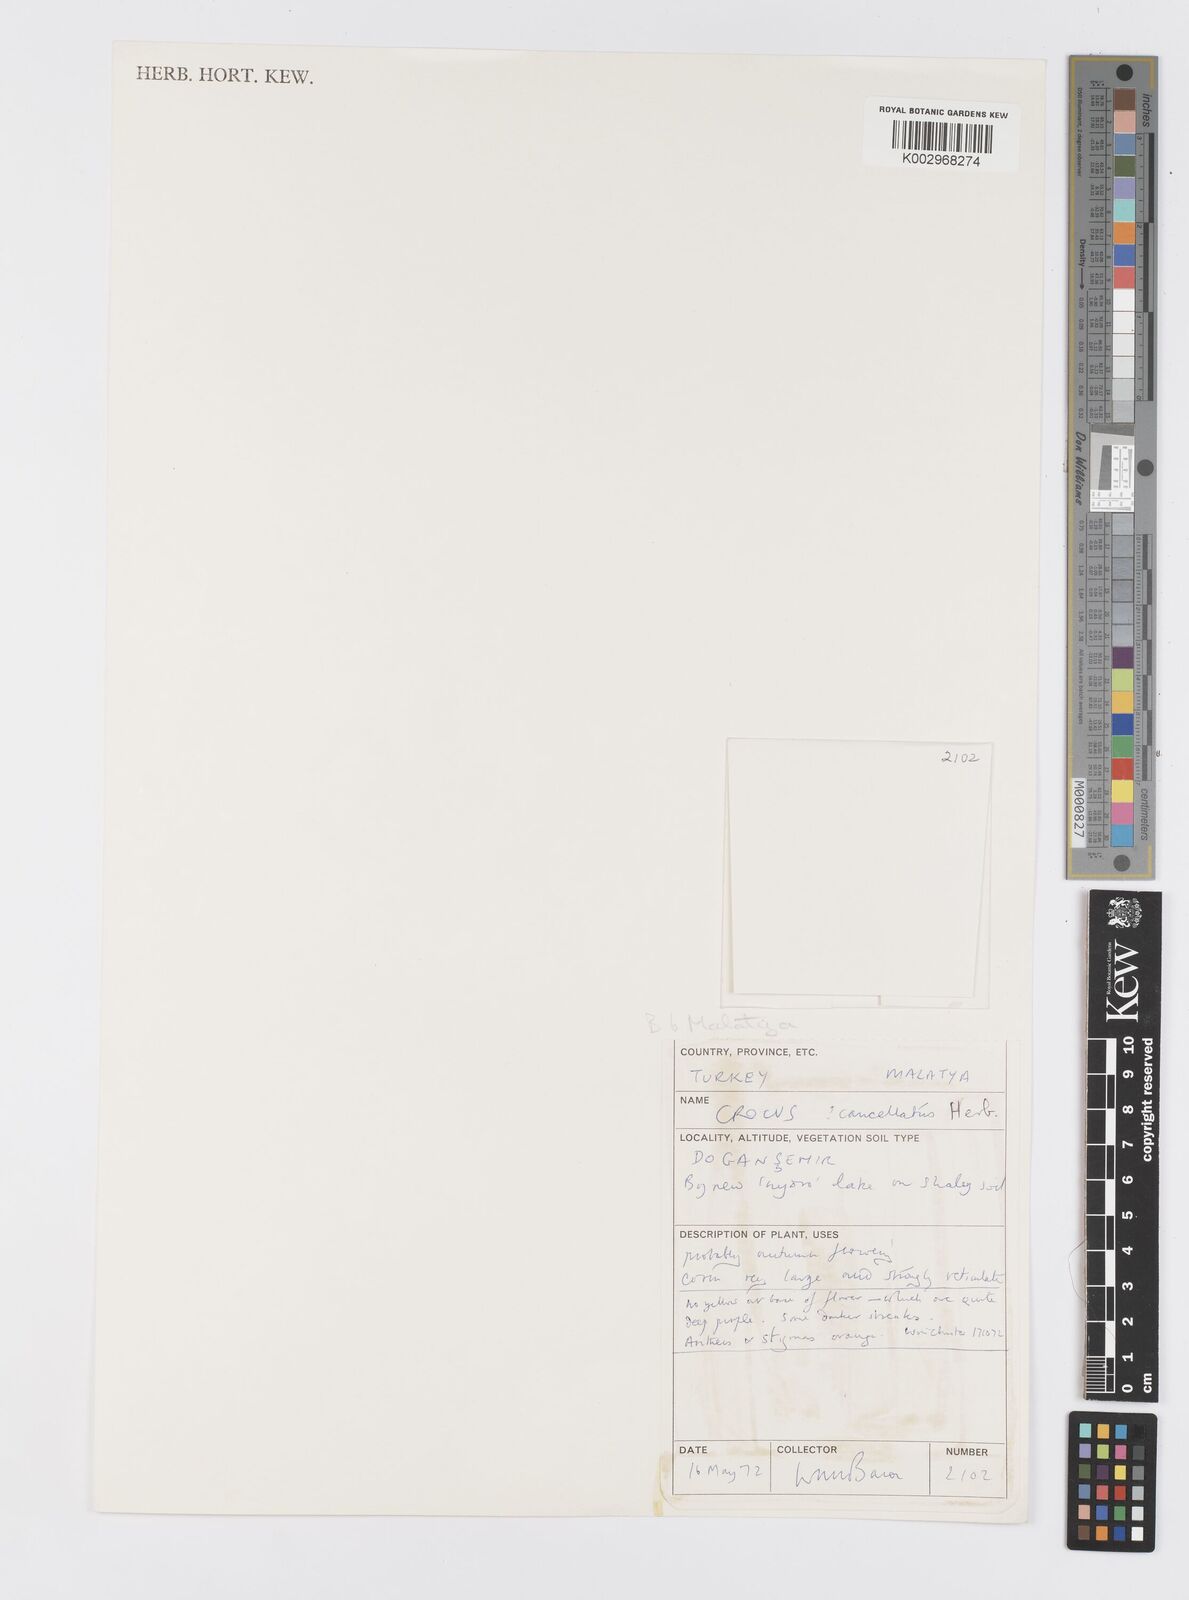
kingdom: Plantae
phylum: Tracheophyta
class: Liliopsida
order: Asparagales
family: Iridaceae
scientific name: Iridaceae
